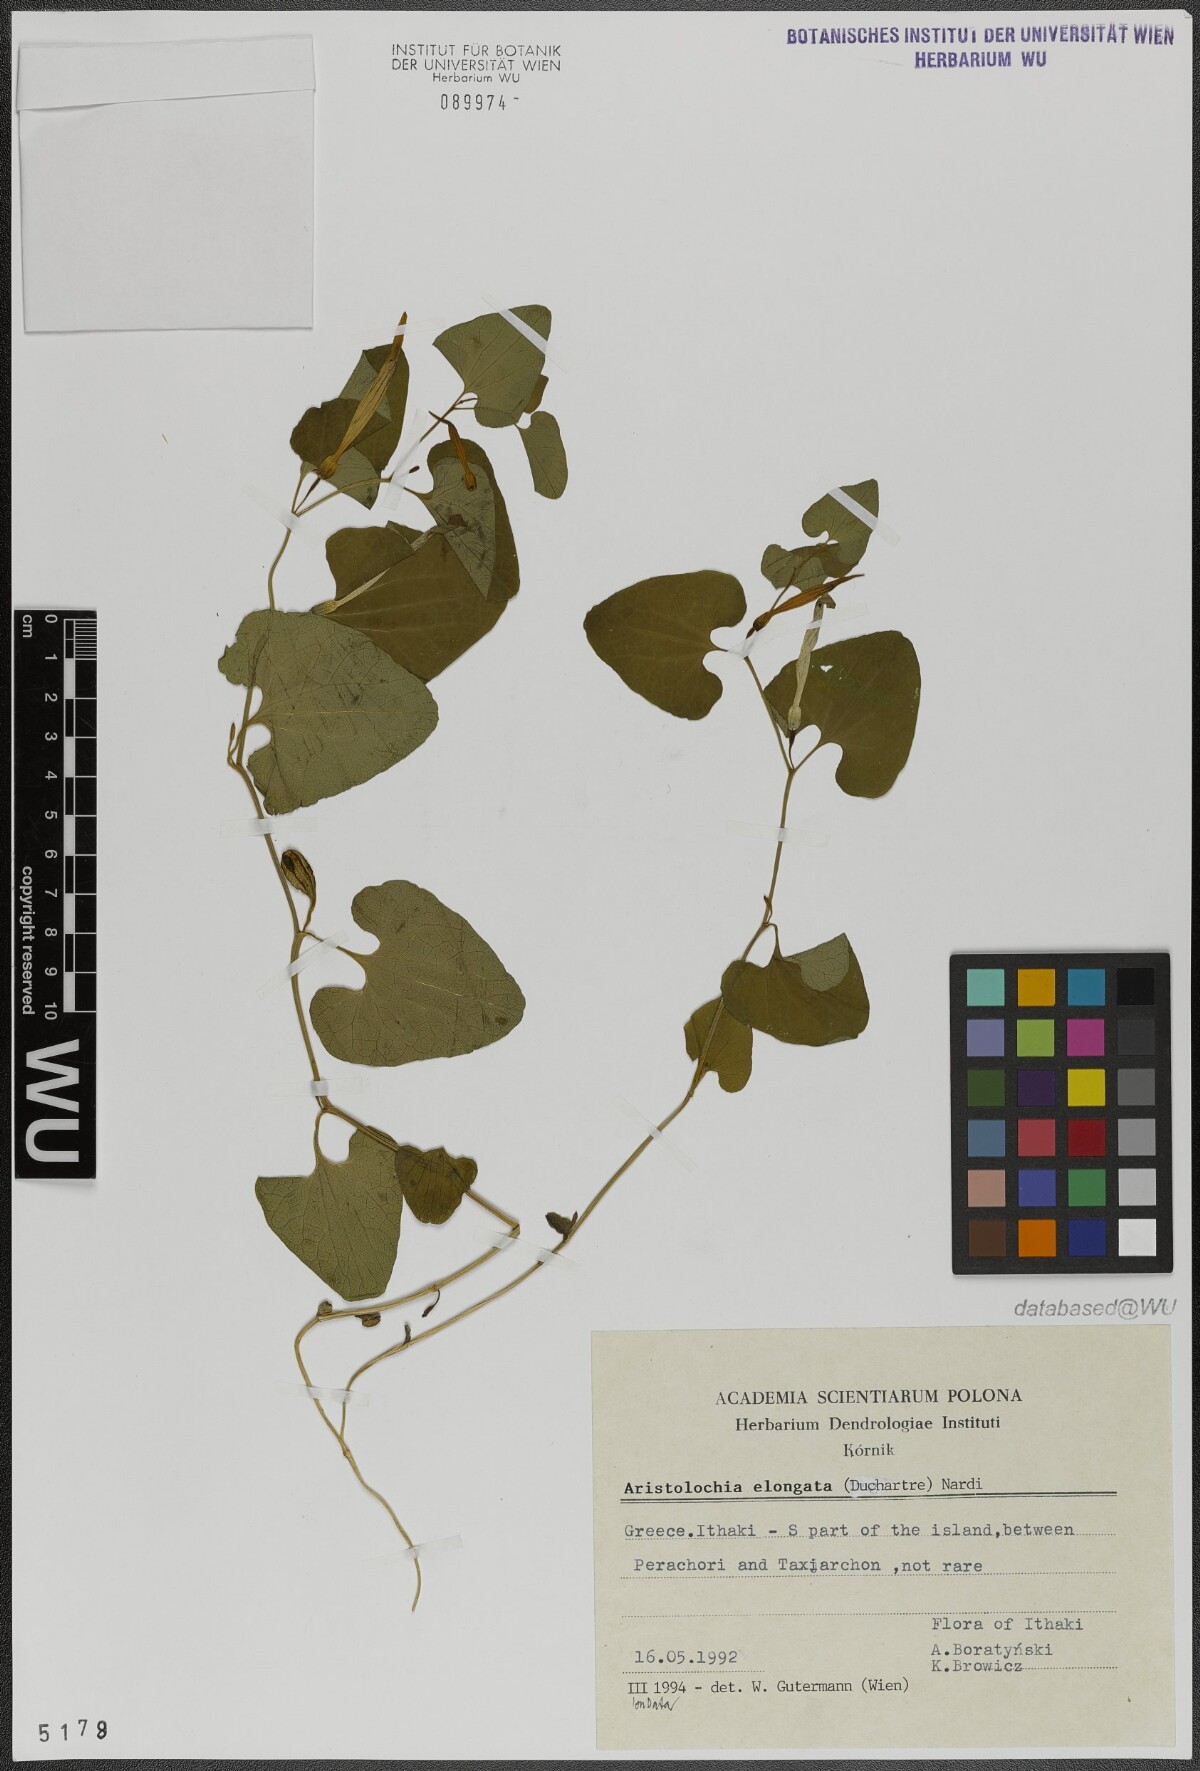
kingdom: Plantae
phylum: Tracheophyta
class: Magnoliopsida
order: Piperales
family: Aristolochiaceae
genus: Aristolochia
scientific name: Aristolochia nardiana
